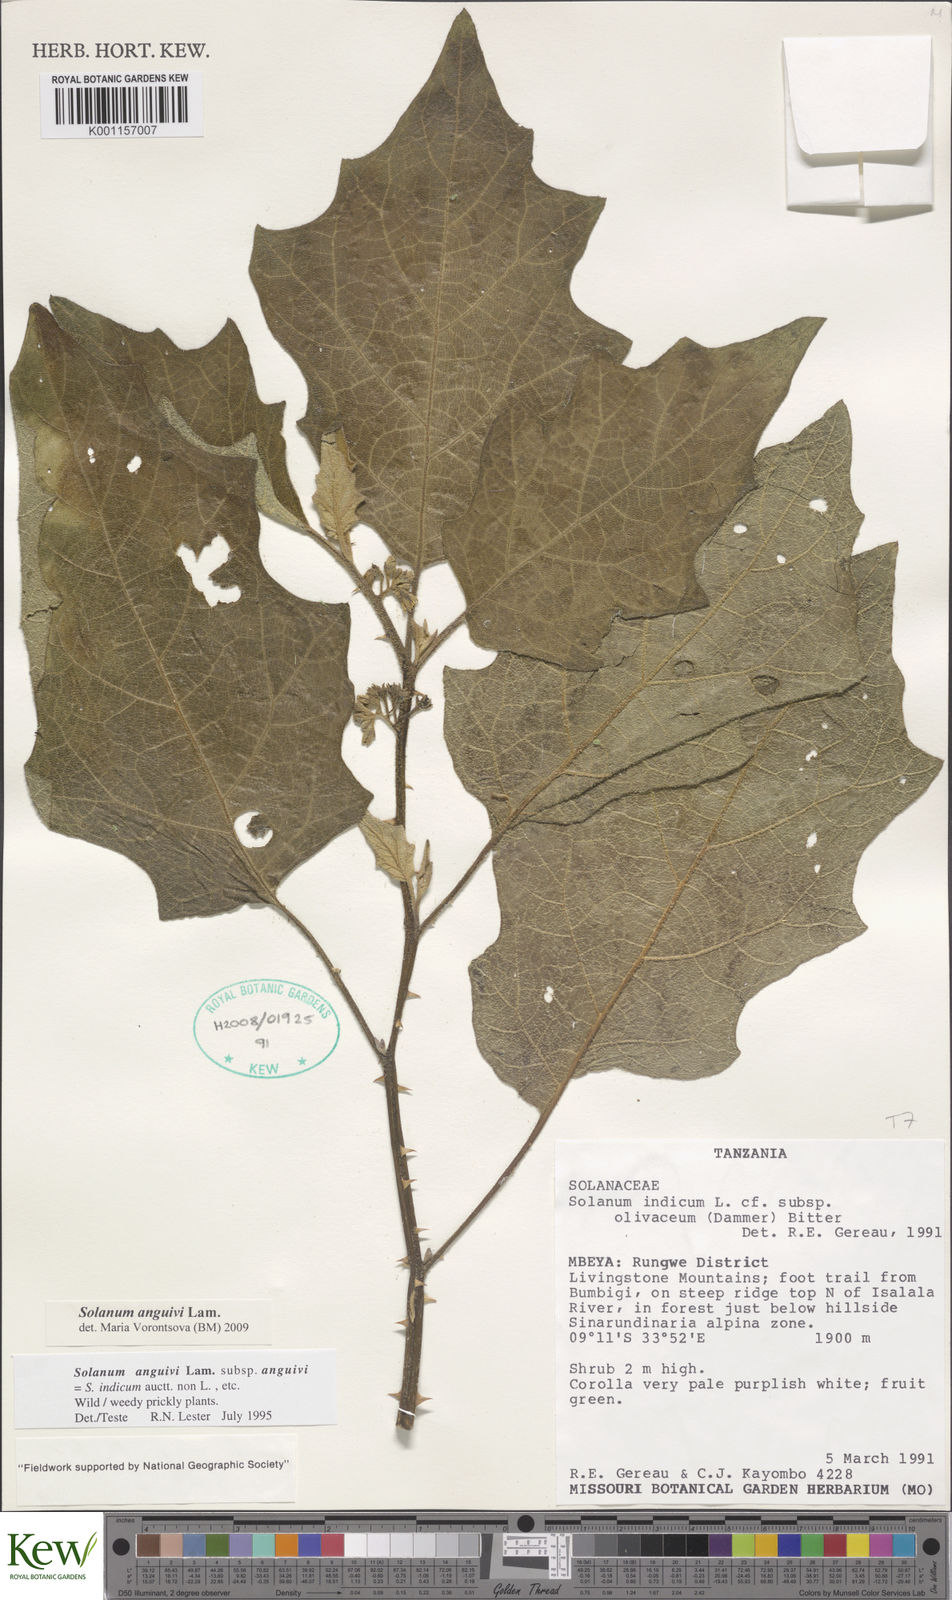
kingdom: Plantae
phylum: Tracheophyta
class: Magnoliopsida
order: Solanales
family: Solanaceae
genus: Solanum
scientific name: Solanum anguivi
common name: Forest bitterberry
